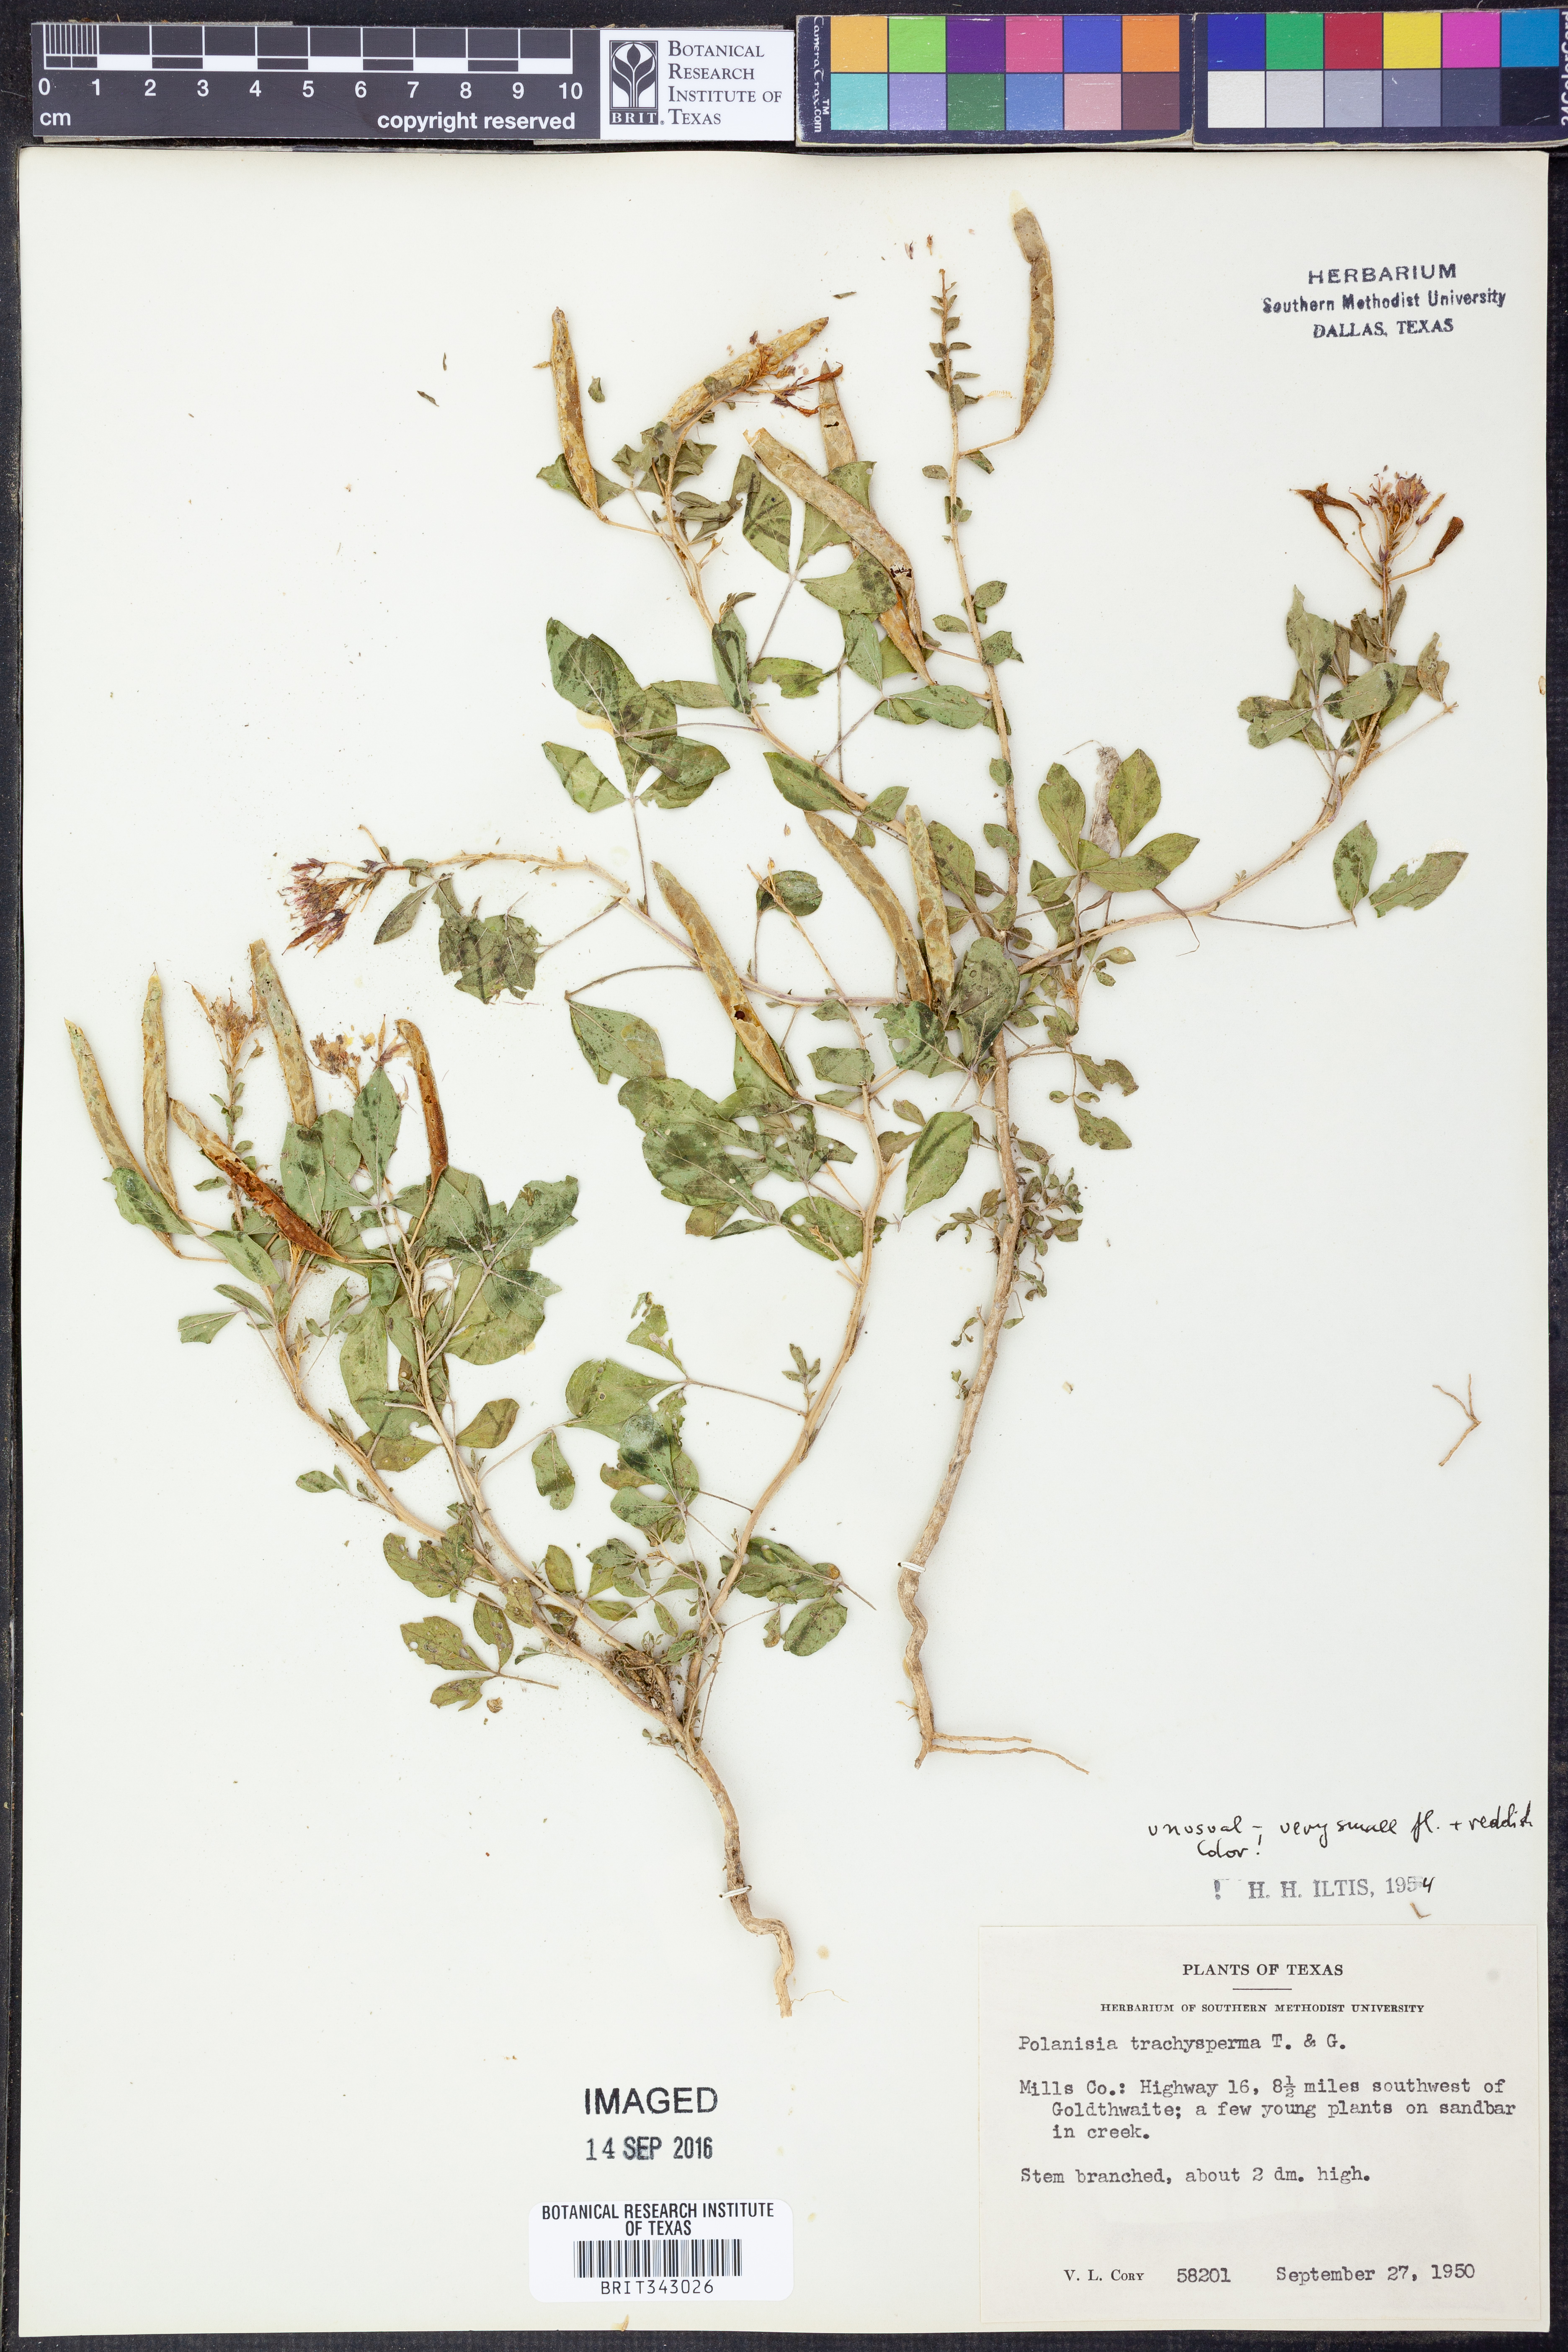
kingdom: Plantae
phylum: Tracheophyta
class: Magnoliopsida
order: Brassicales
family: Cleomaceae
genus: Polanisia
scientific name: Polanisia trachysperma
